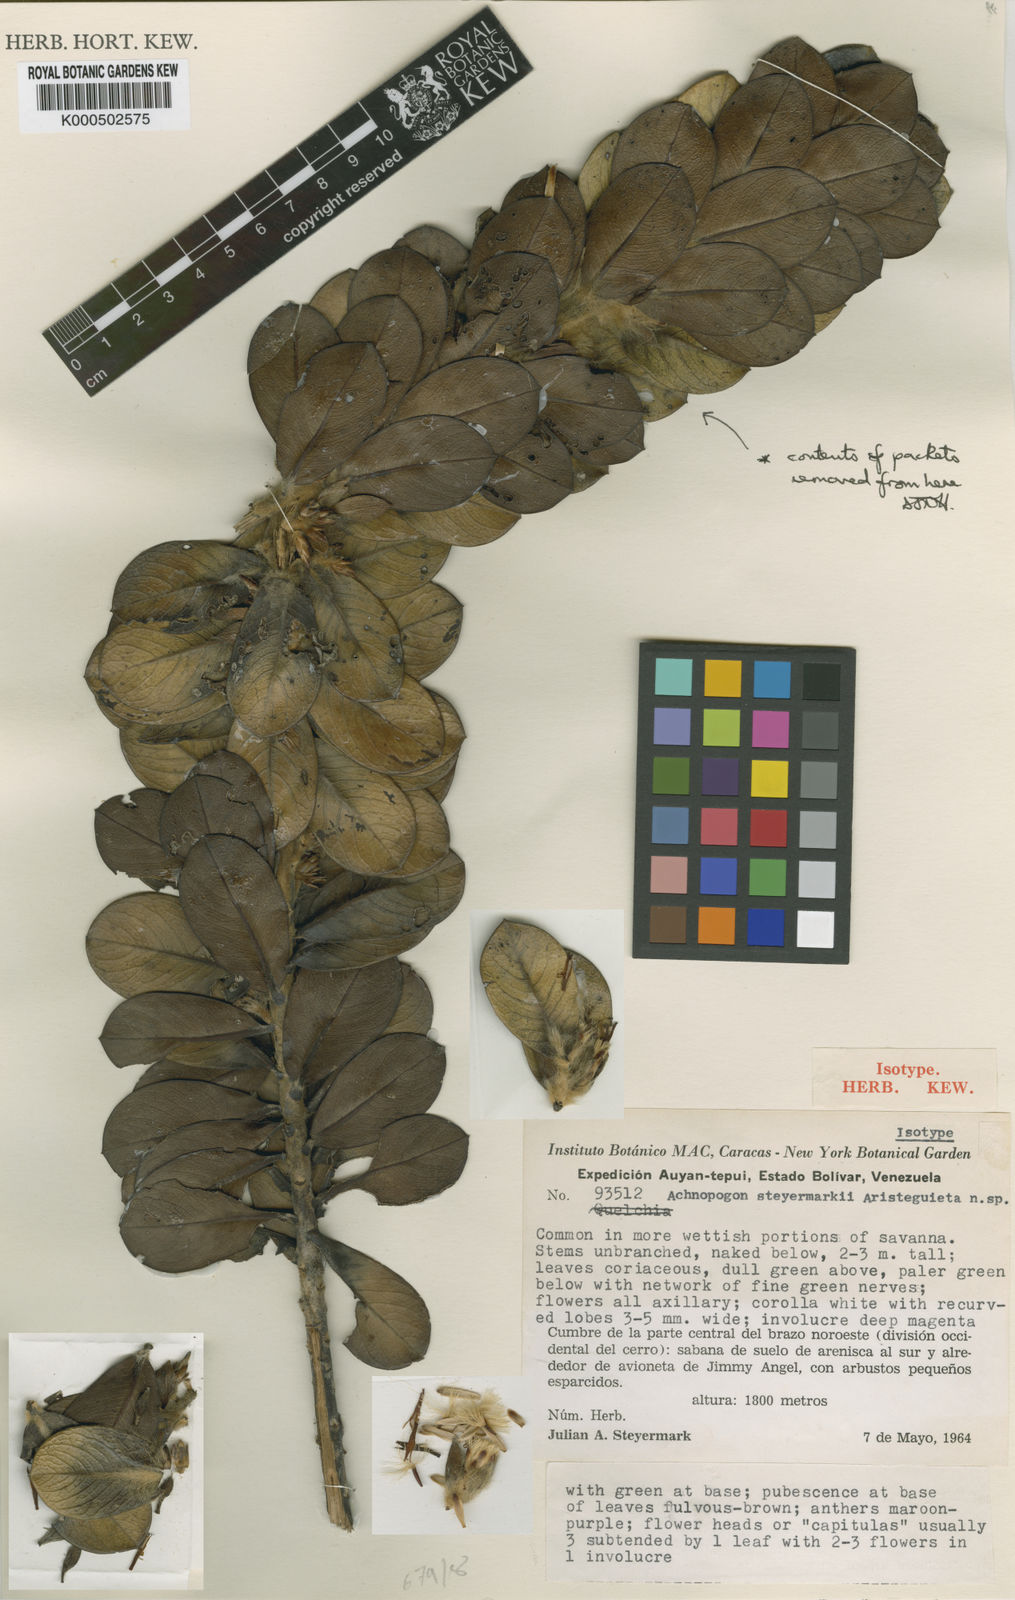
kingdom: Plantae
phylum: Tracheophyta
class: Magnoliopsida
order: Asterales
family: Asteraceae
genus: Achnopogon
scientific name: Achnopogon steyermarkii
